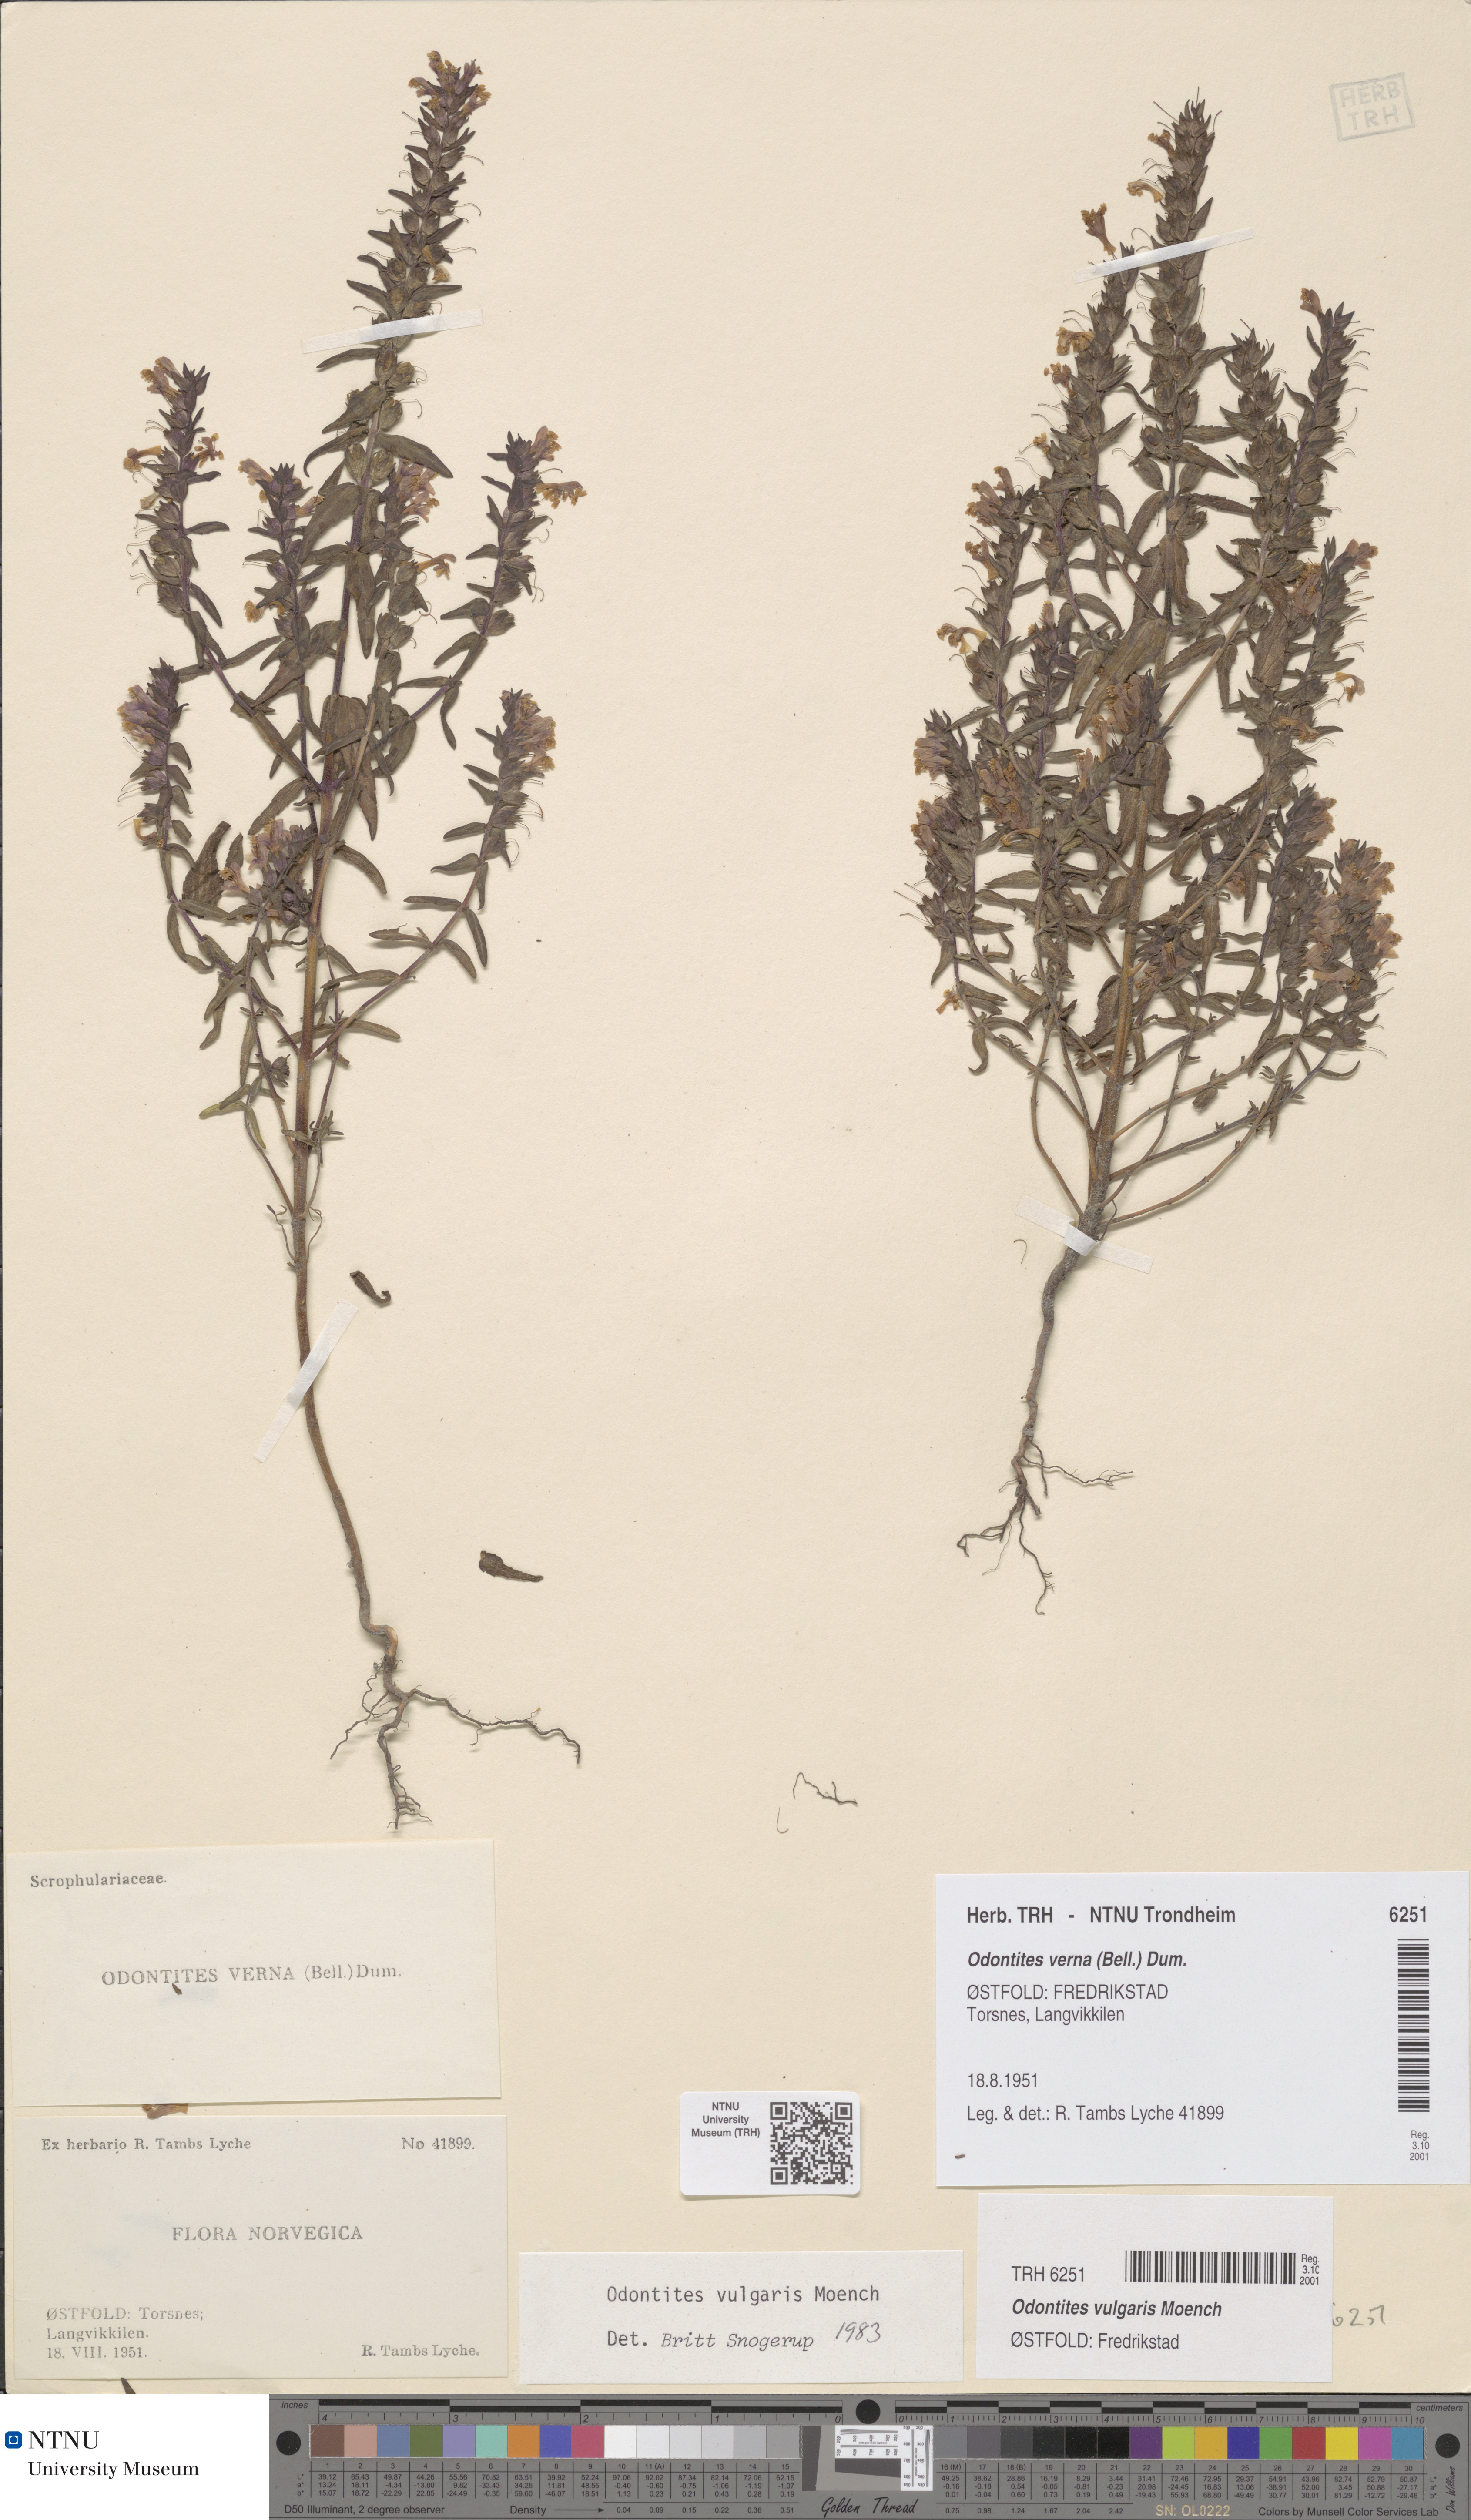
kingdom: Plantae
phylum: Tracheophyta
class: Magnoliopsida
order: Lamiales
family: Orobanchaceae
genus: Odontites
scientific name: Odontites vulgaris
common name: Broomrape
